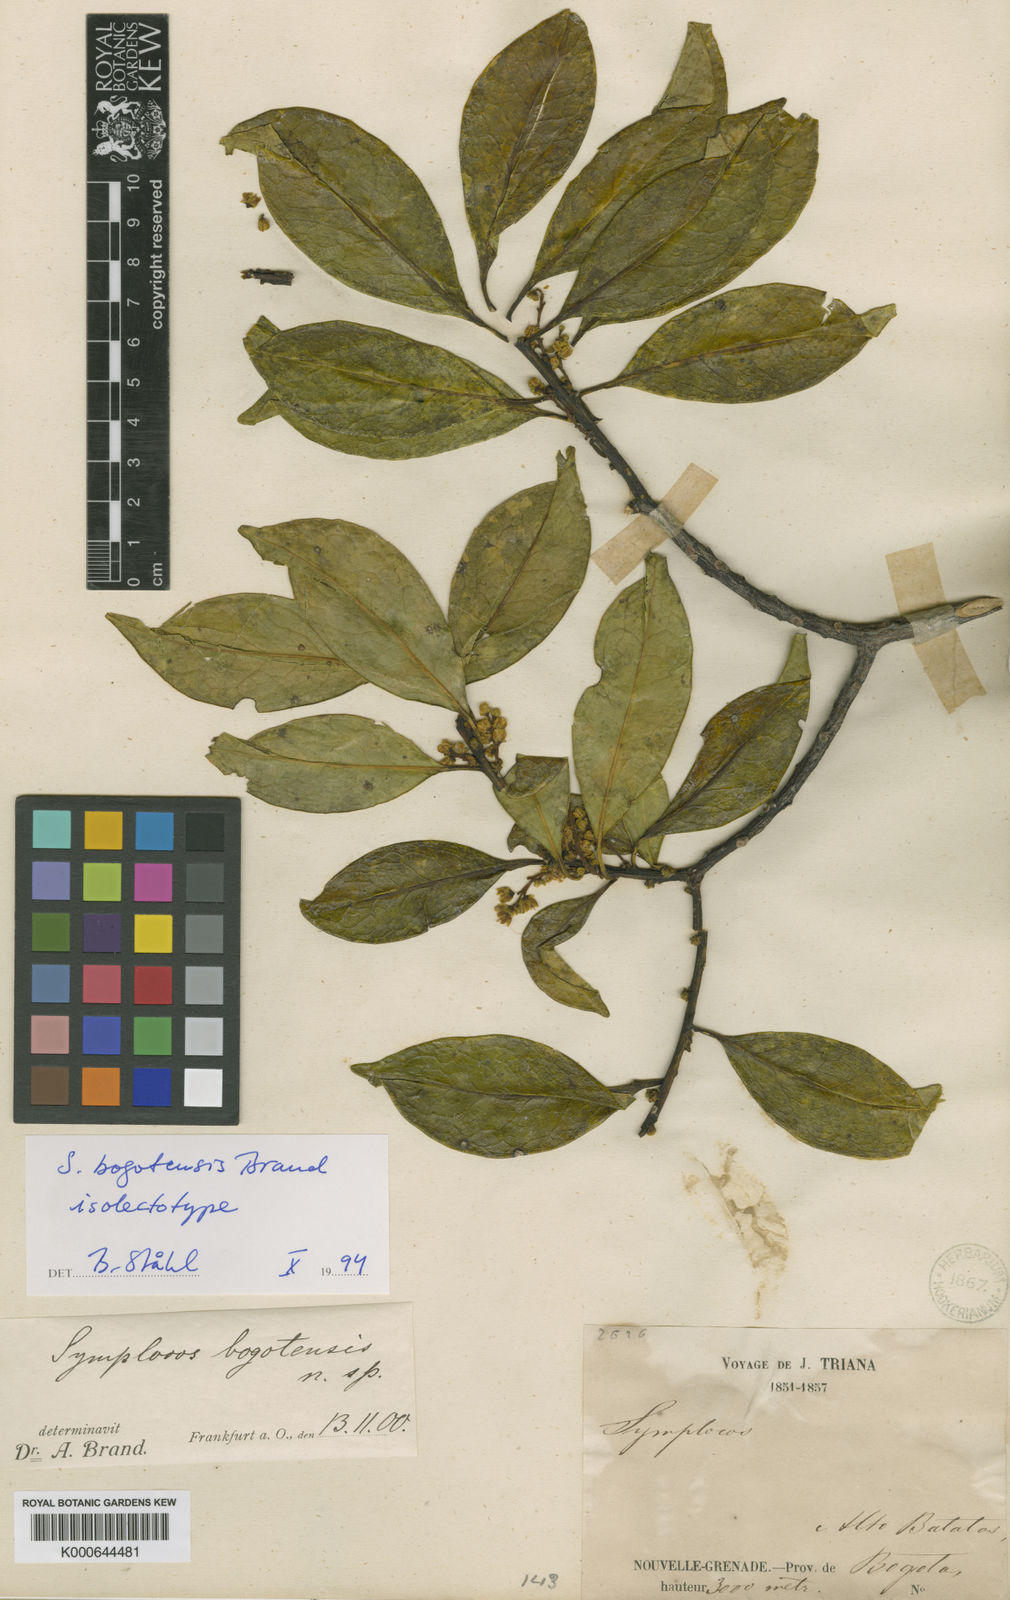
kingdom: Plantae
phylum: Tracheophyta
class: Magnoliopsida
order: Ericales
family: Symplocaceae
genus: Symplocos
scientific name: Symplocos bogotensis
